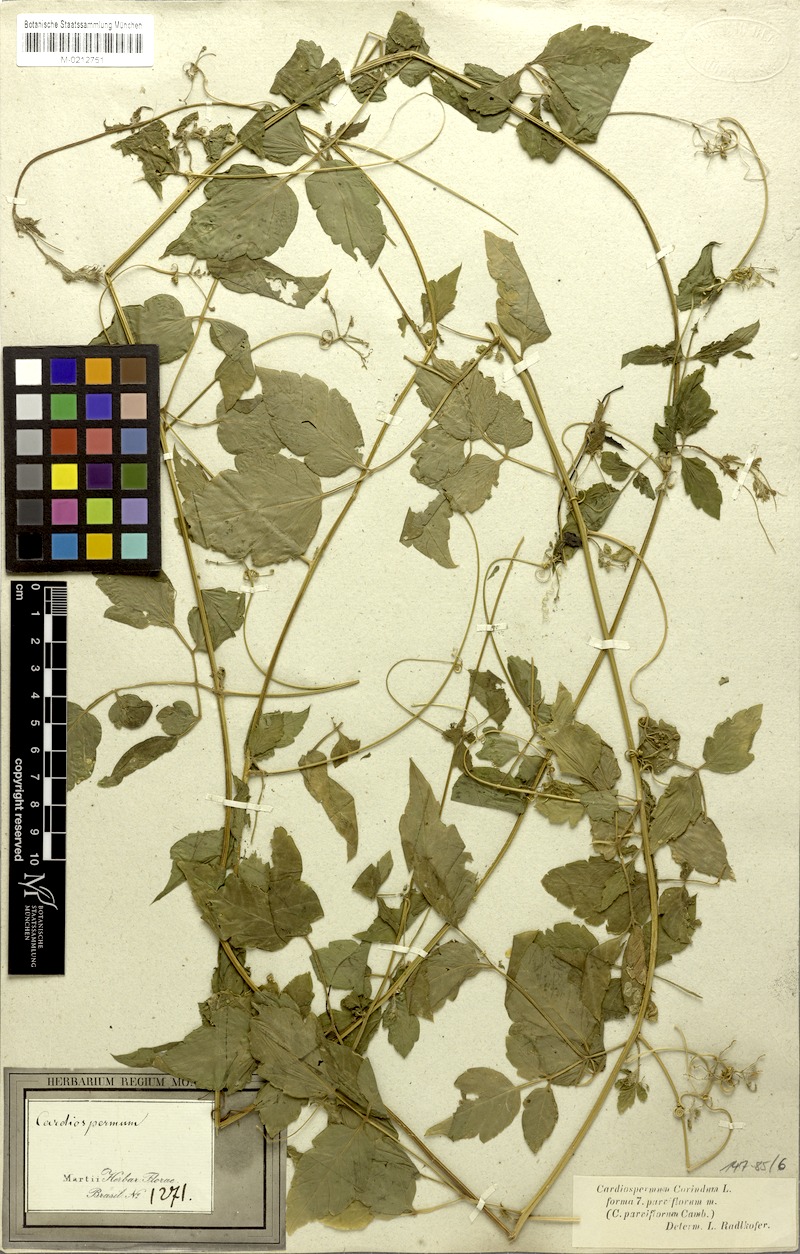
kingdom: Plantae
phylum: Tracheophyta
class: Magnoliopsida
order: Sapindales
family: Sapindaceae
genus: Cardiospermum
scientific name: Cardiospermum corindum
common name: Faux persil
